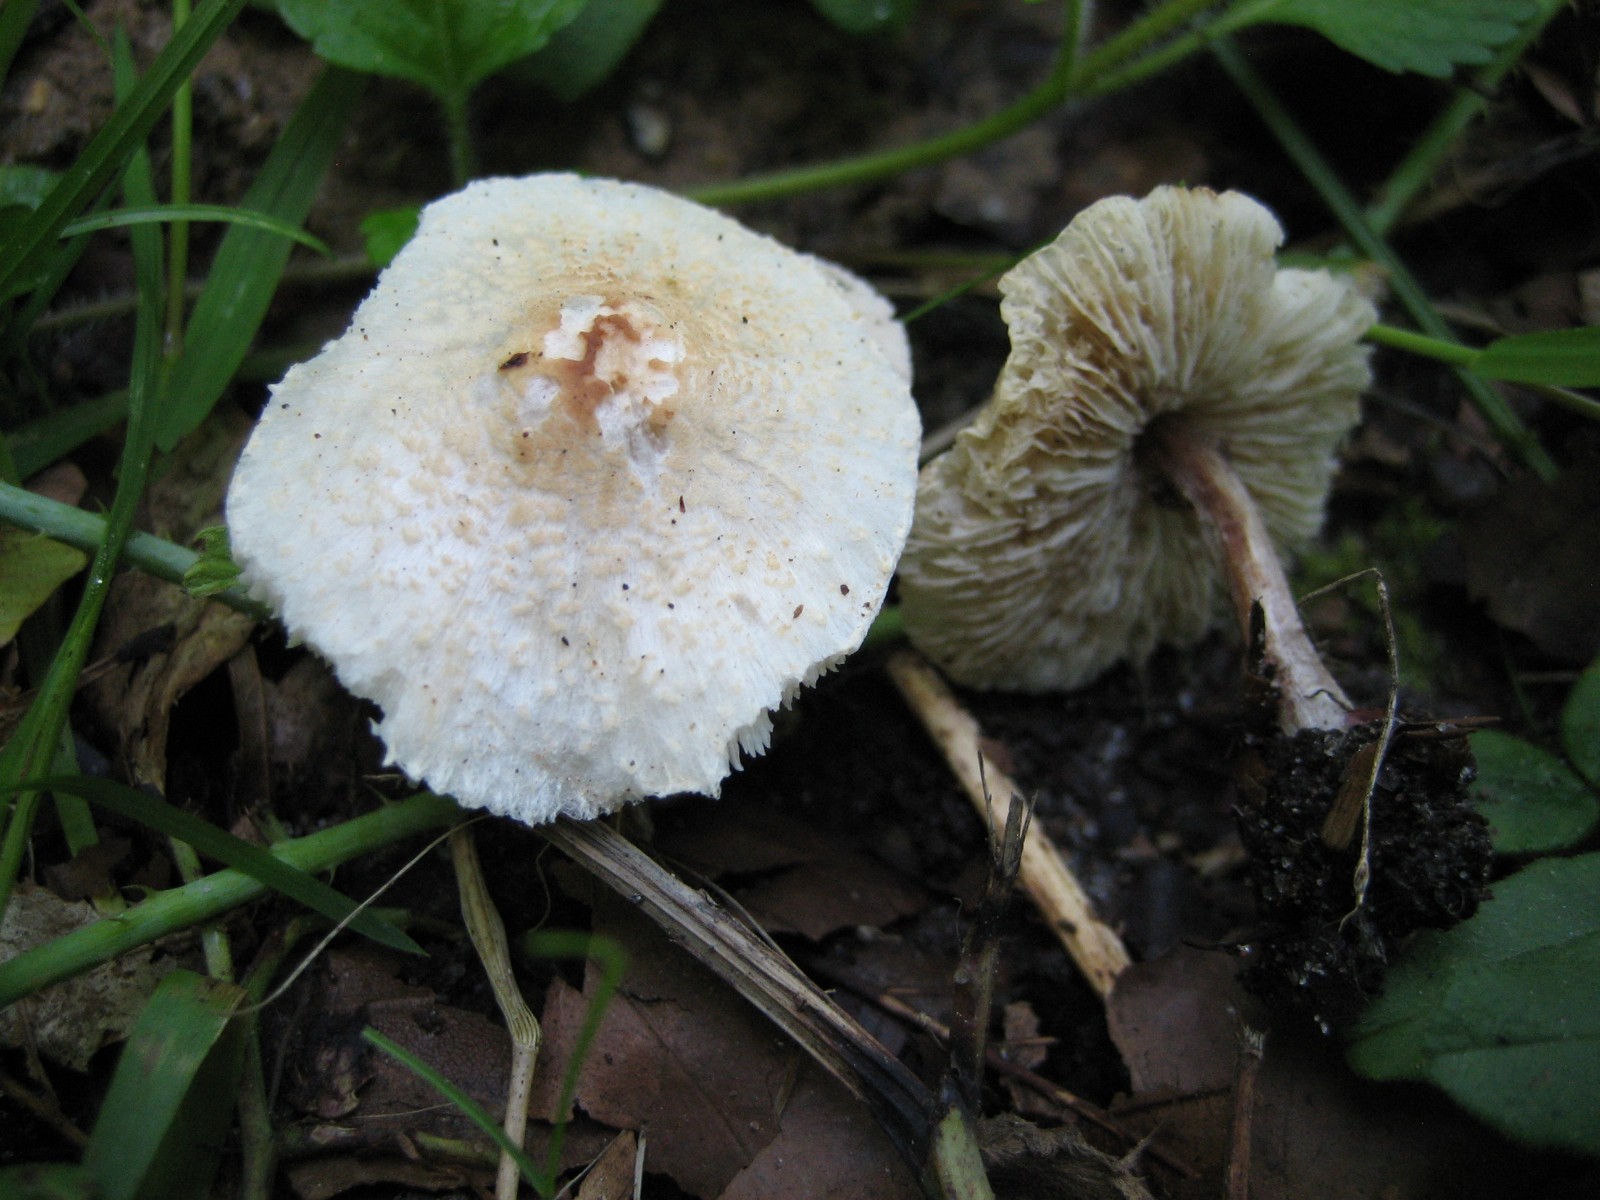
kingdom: Fungi
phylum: Basidiomycota
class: Agaricomycetes
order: Agaricales
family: Agaricaceae
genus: Lepiota
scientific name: Lepiota cristata
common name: stinkende parasolhat
